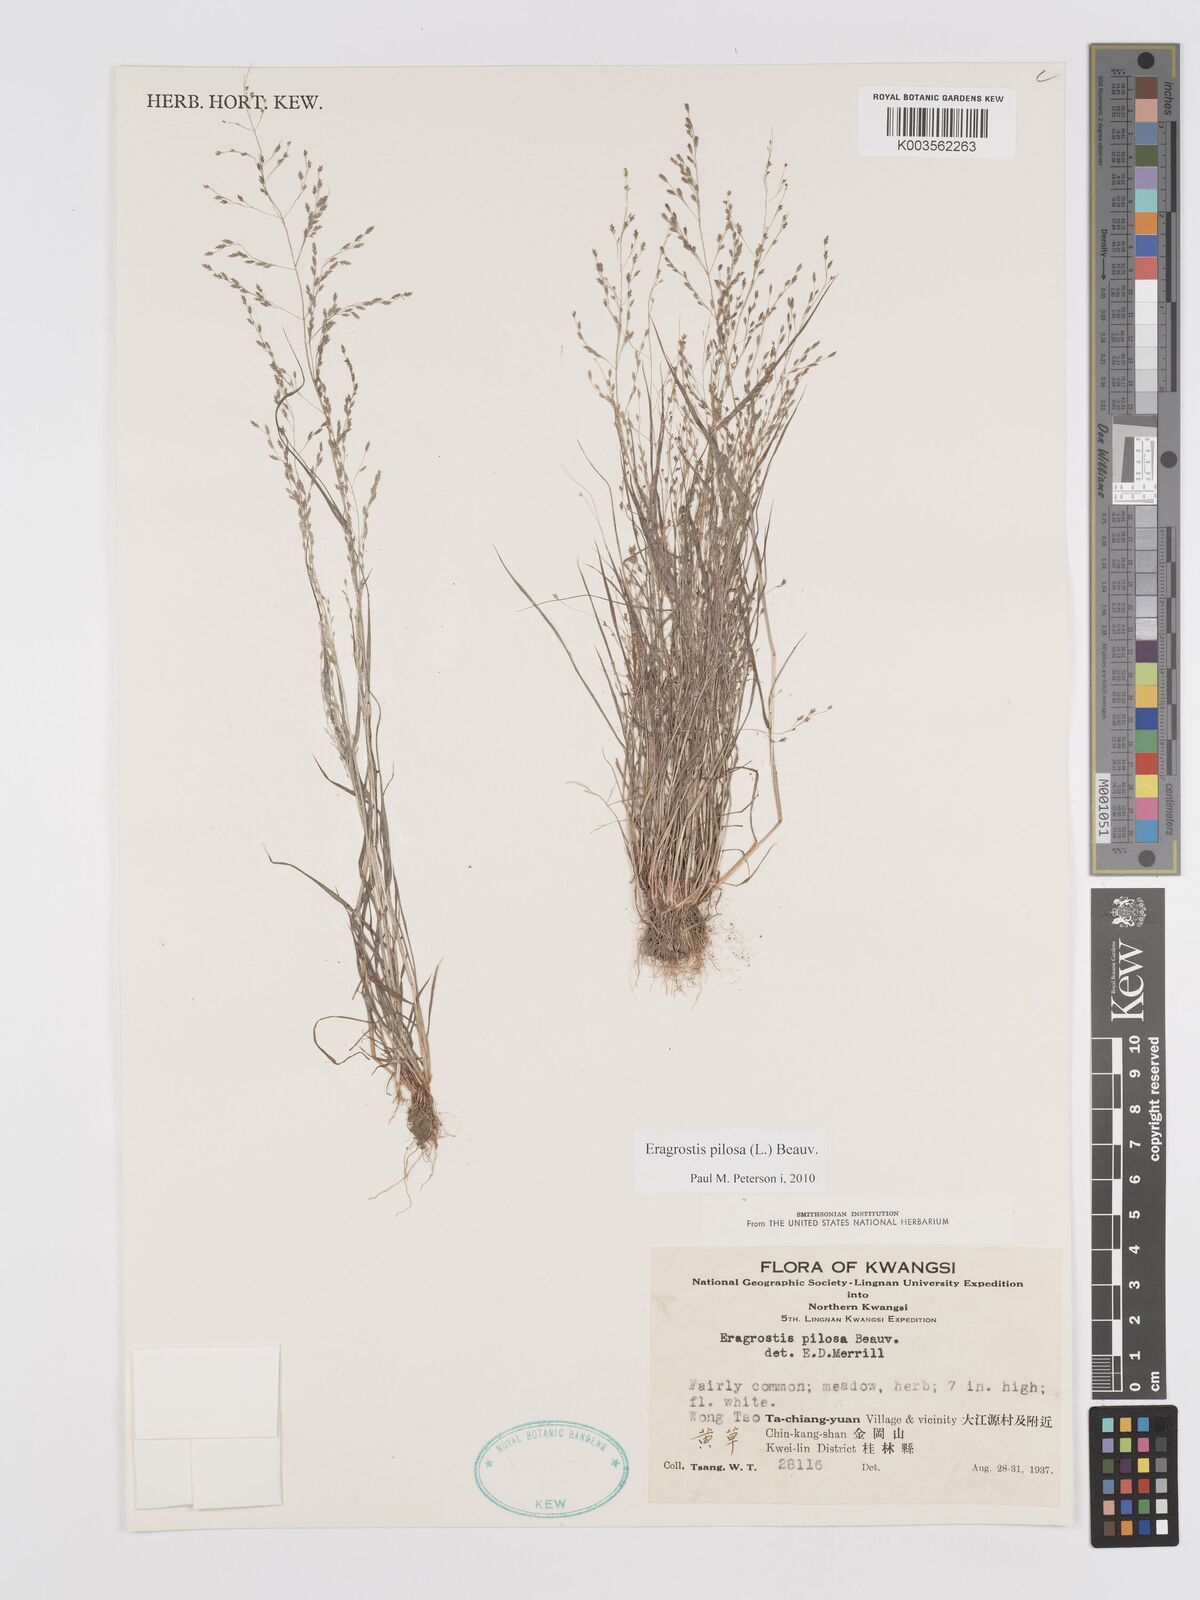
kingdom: Plantae
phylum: Tracheophyta
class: Liliopsida
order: Poales
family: Poaceae
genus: Eragrostis
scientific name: Eragrostis pilosa
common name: Indian lovegrass
